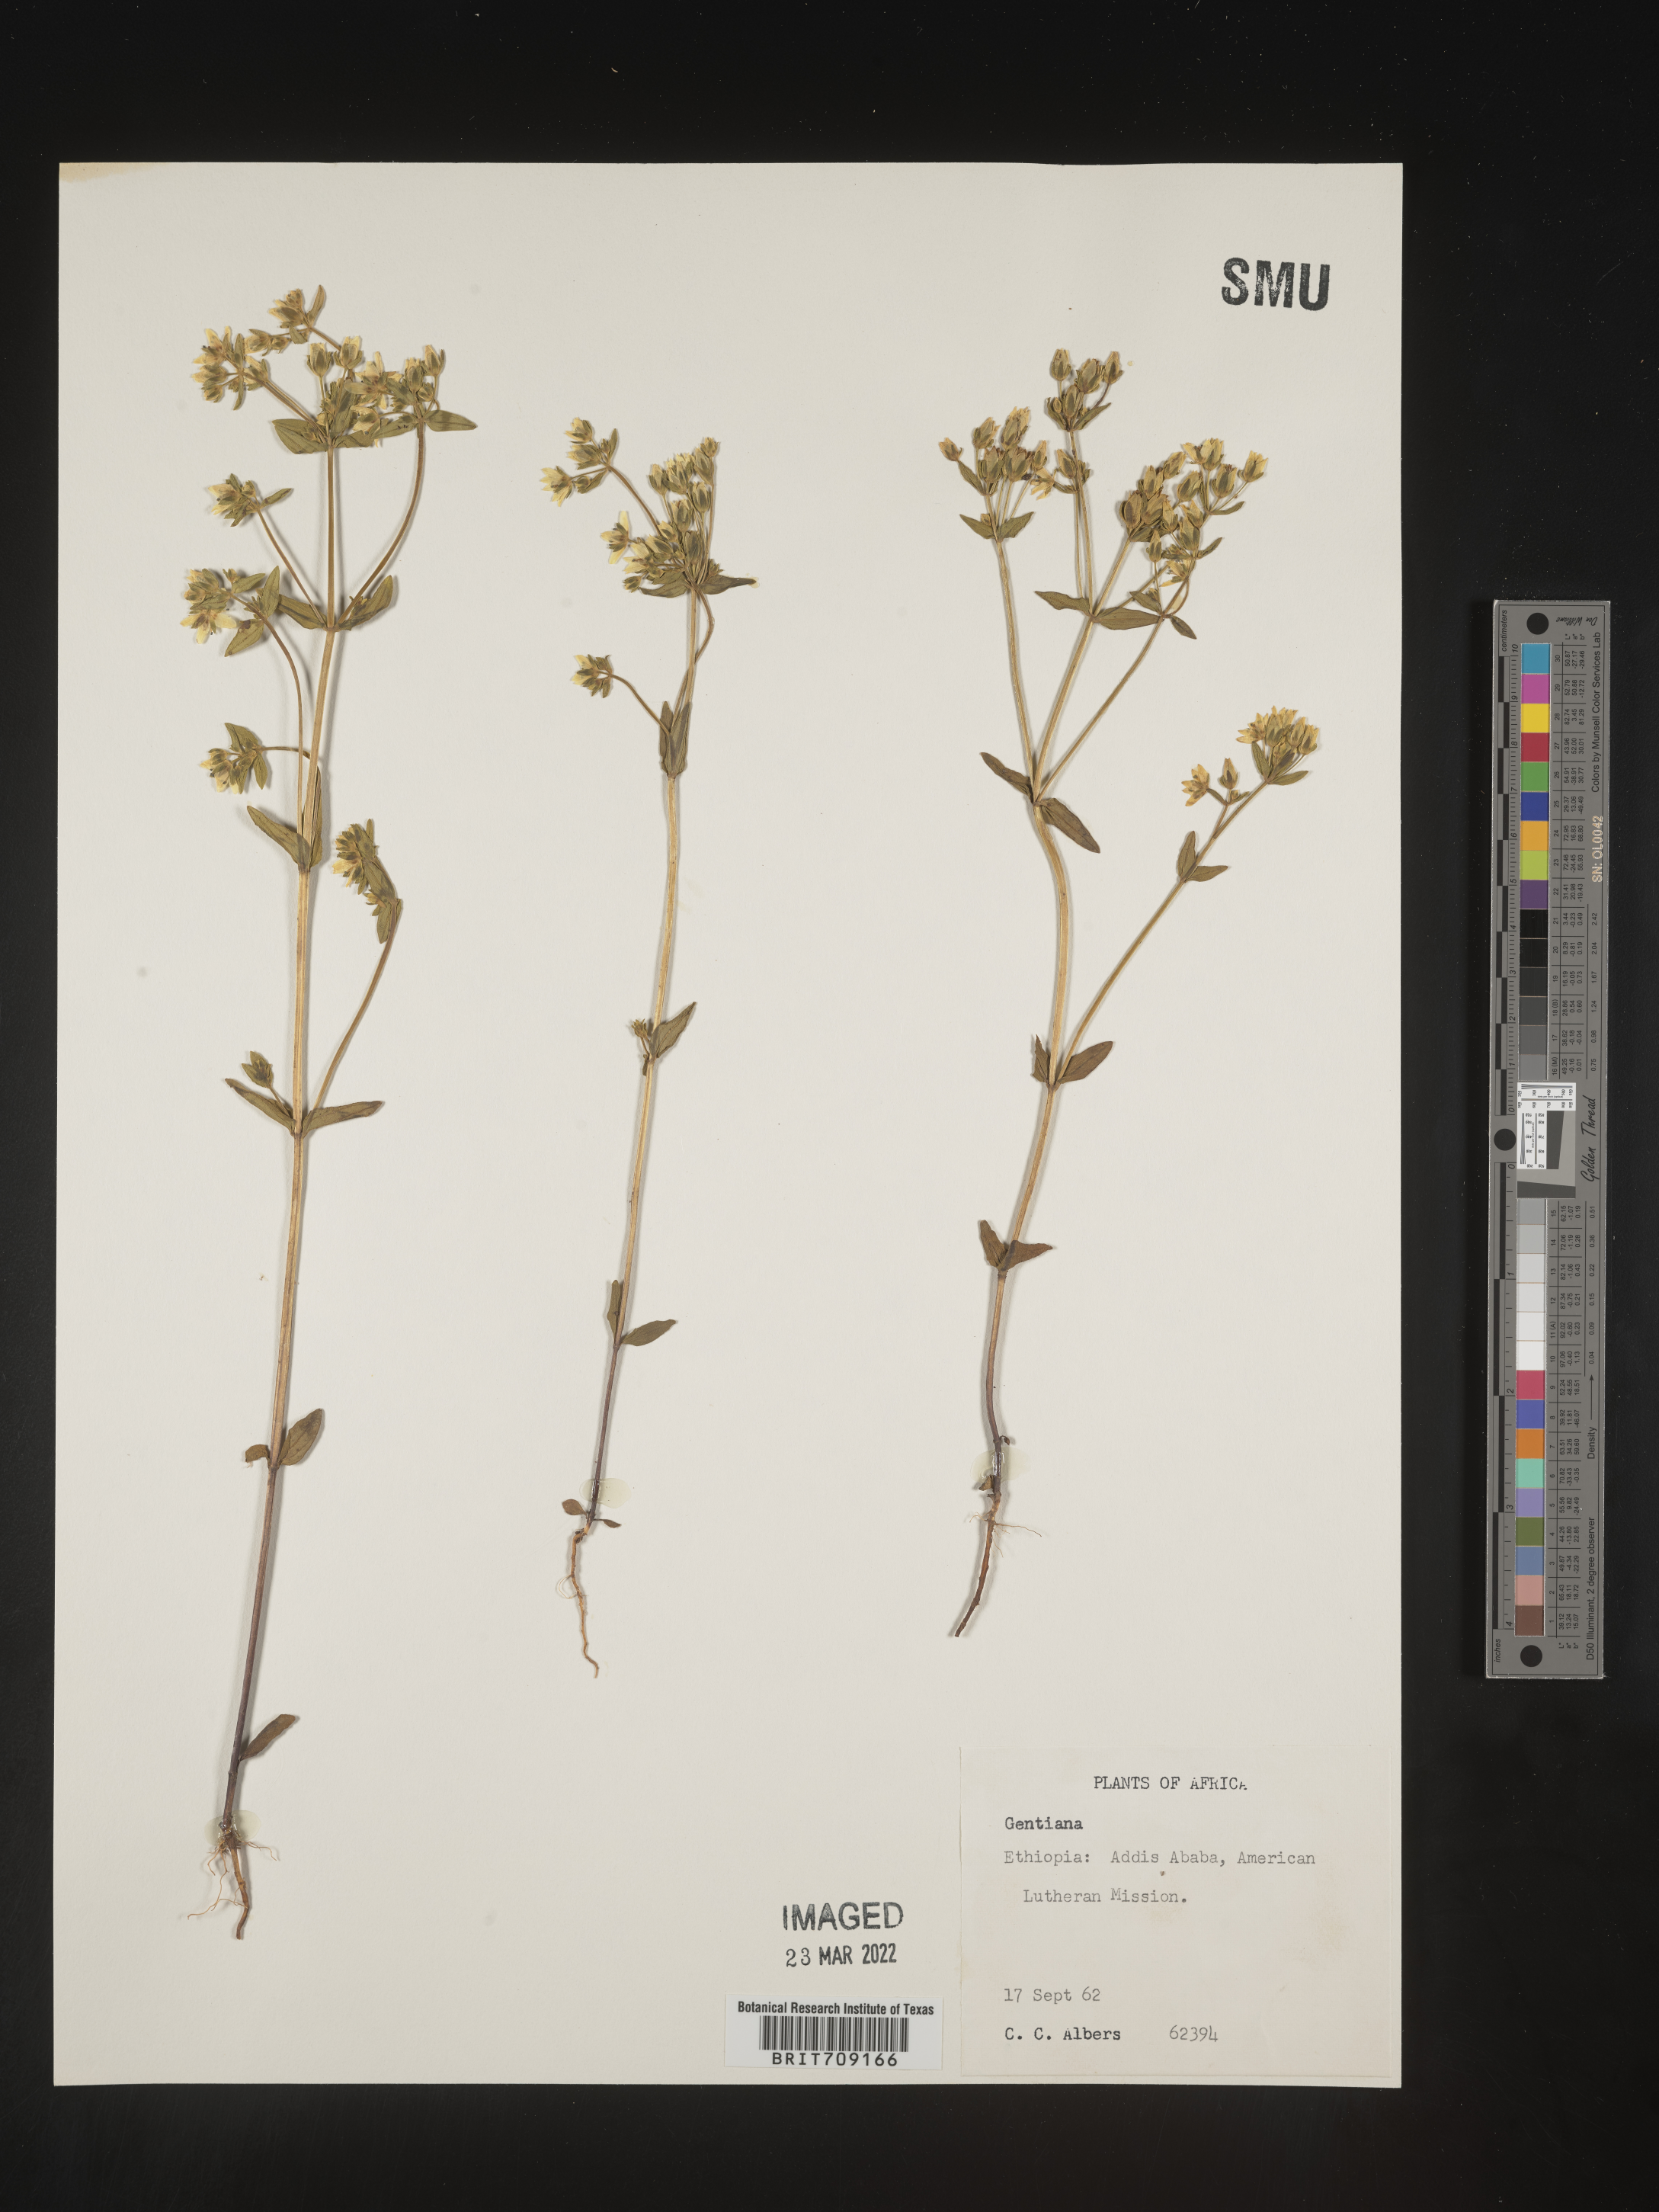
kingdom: Plantae
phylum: Tracheophyta
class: Magnoliopsida
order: Gentianales
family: Gentianaceae
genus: Gentiana
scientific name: Gentiana
